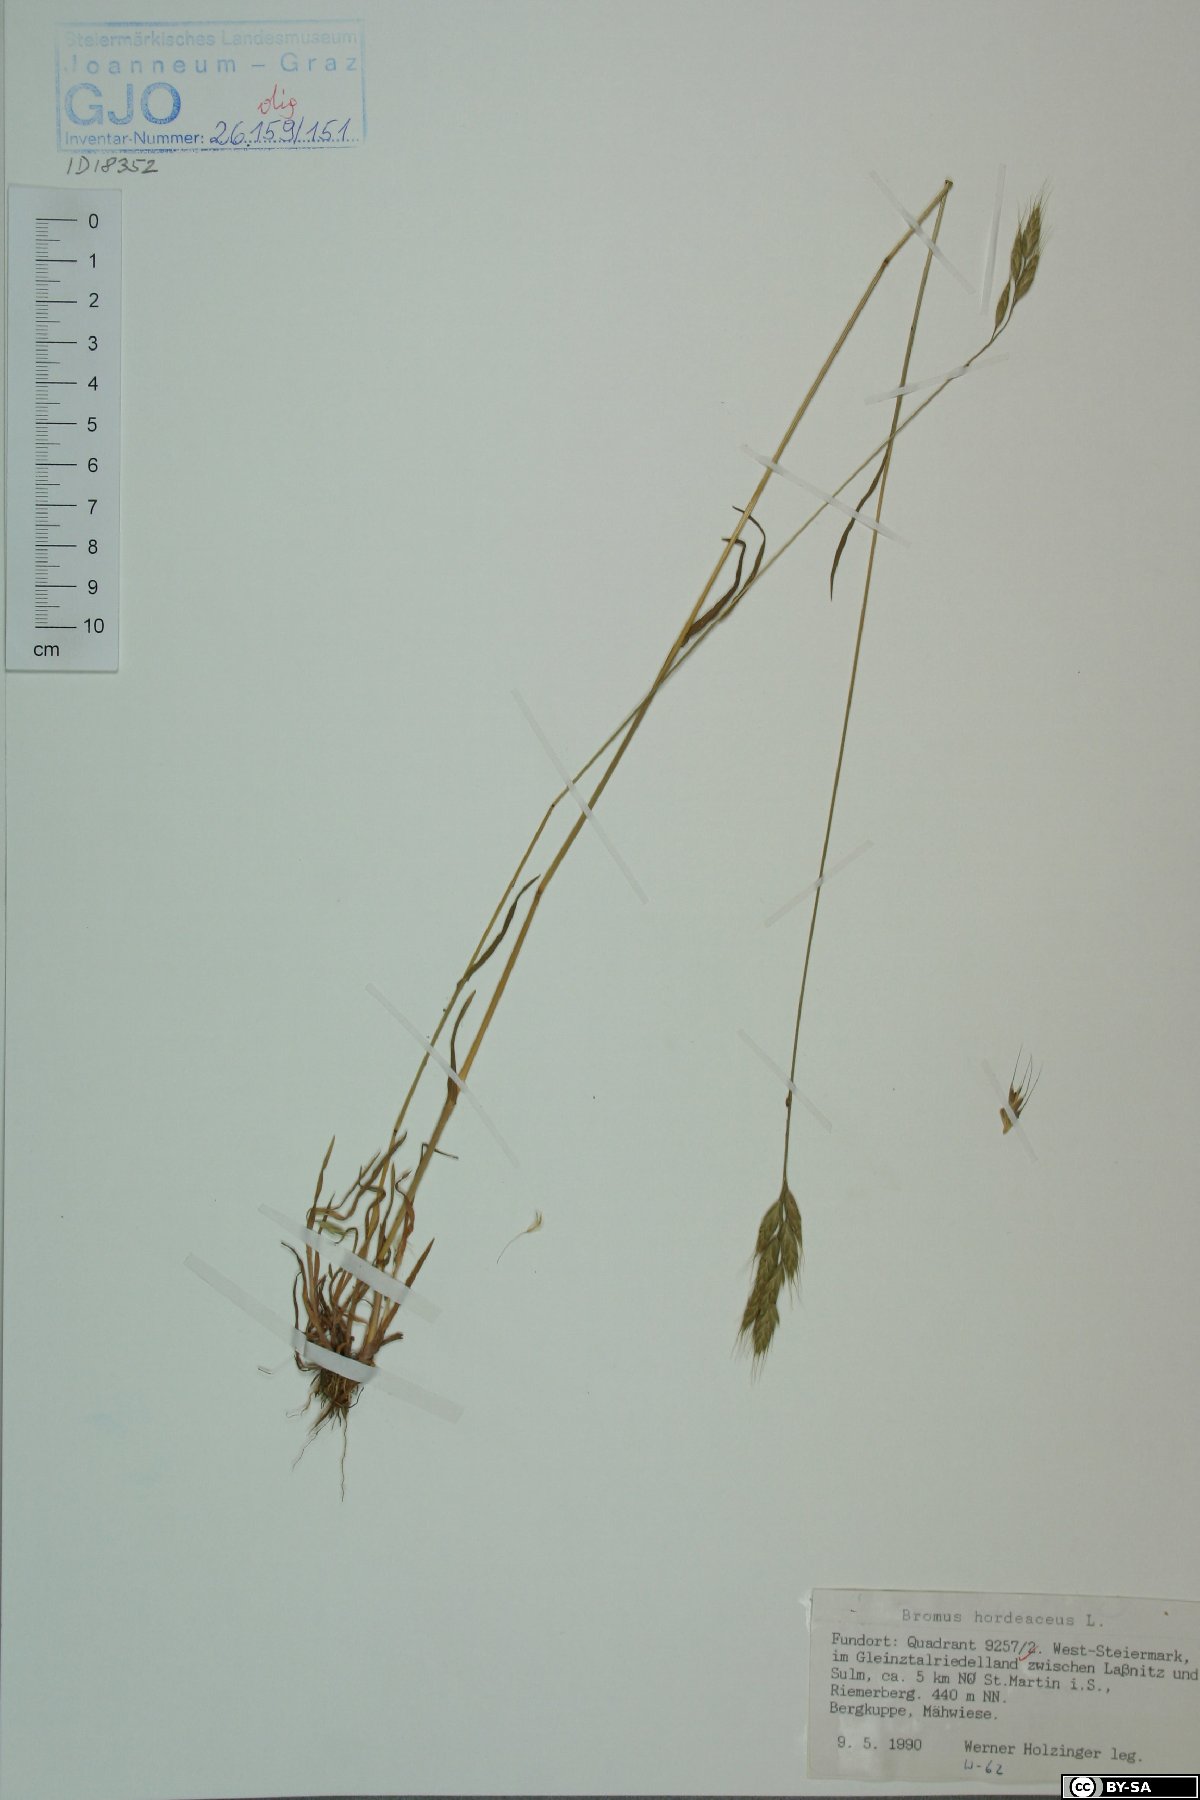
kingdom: Plantae
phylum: Tracheophyta
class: Liliopsida
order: Poales
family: Poaceae
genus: Bromus
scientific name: Bromus hordeaceus
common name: Soft brome
